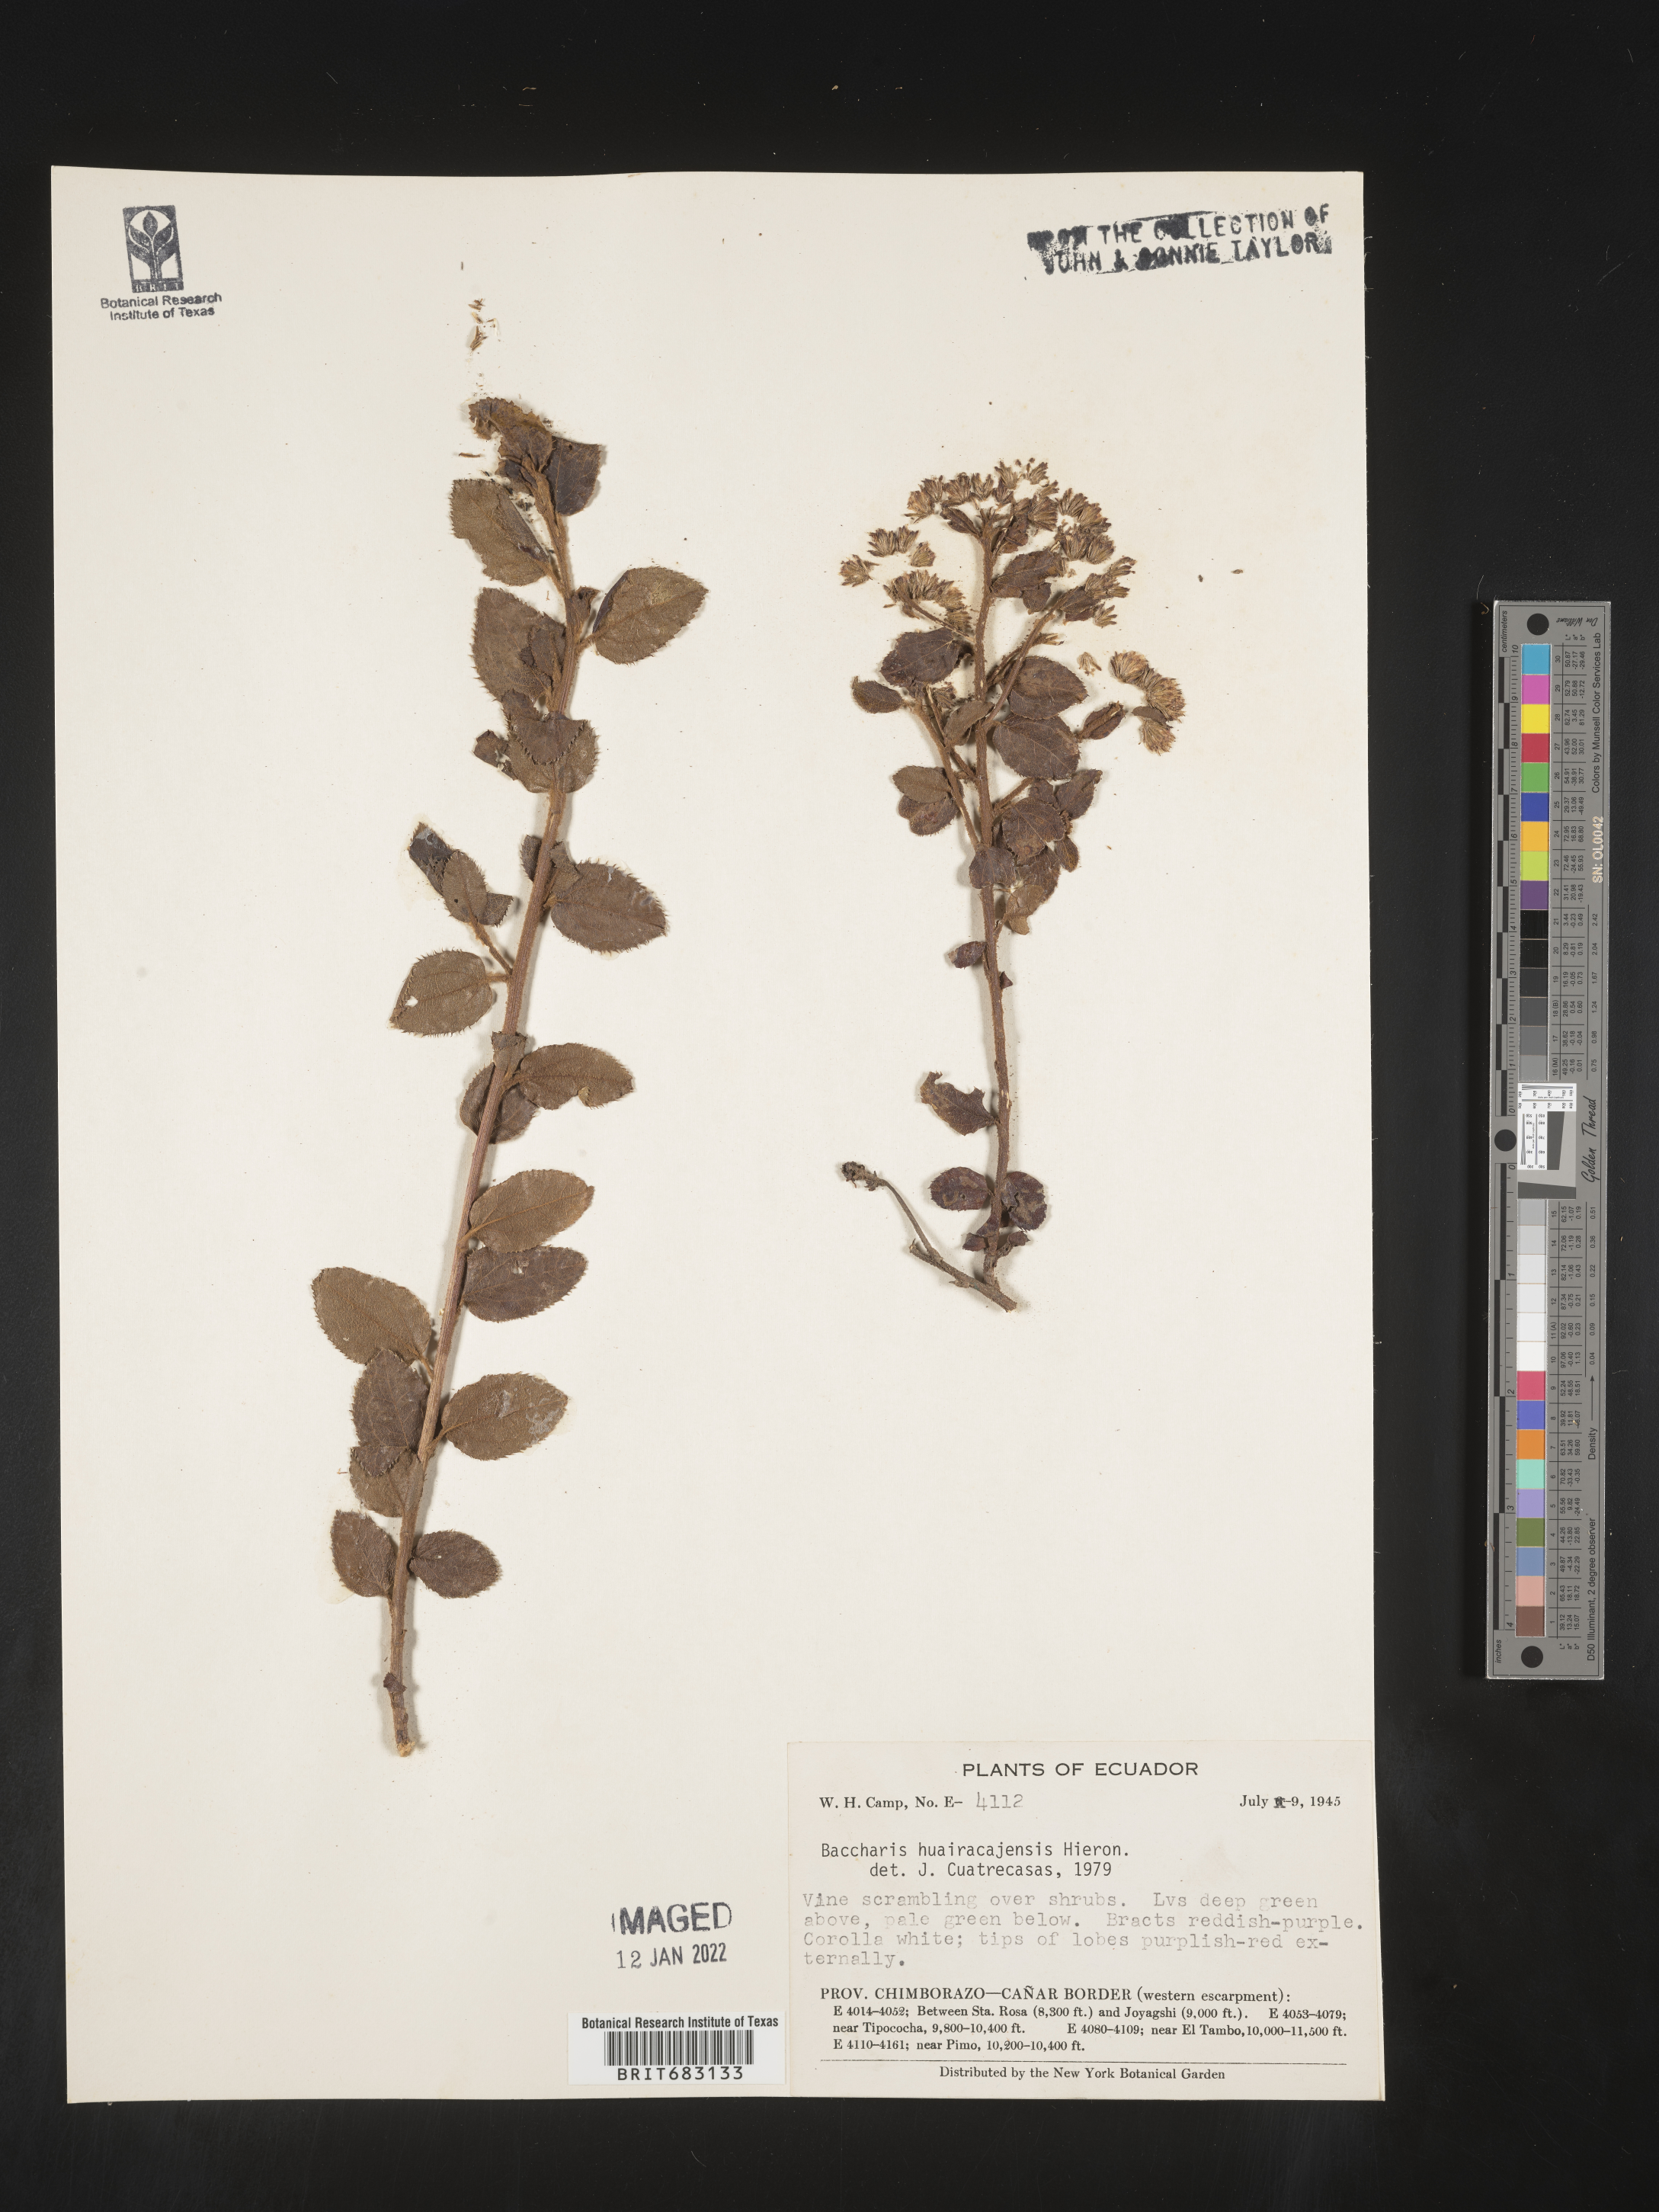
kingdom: Plantae
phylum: Tracheophyta
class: Magnoliopsida
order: Asterales
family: Asteraceae
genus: Baccharis
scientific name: Baccharis
